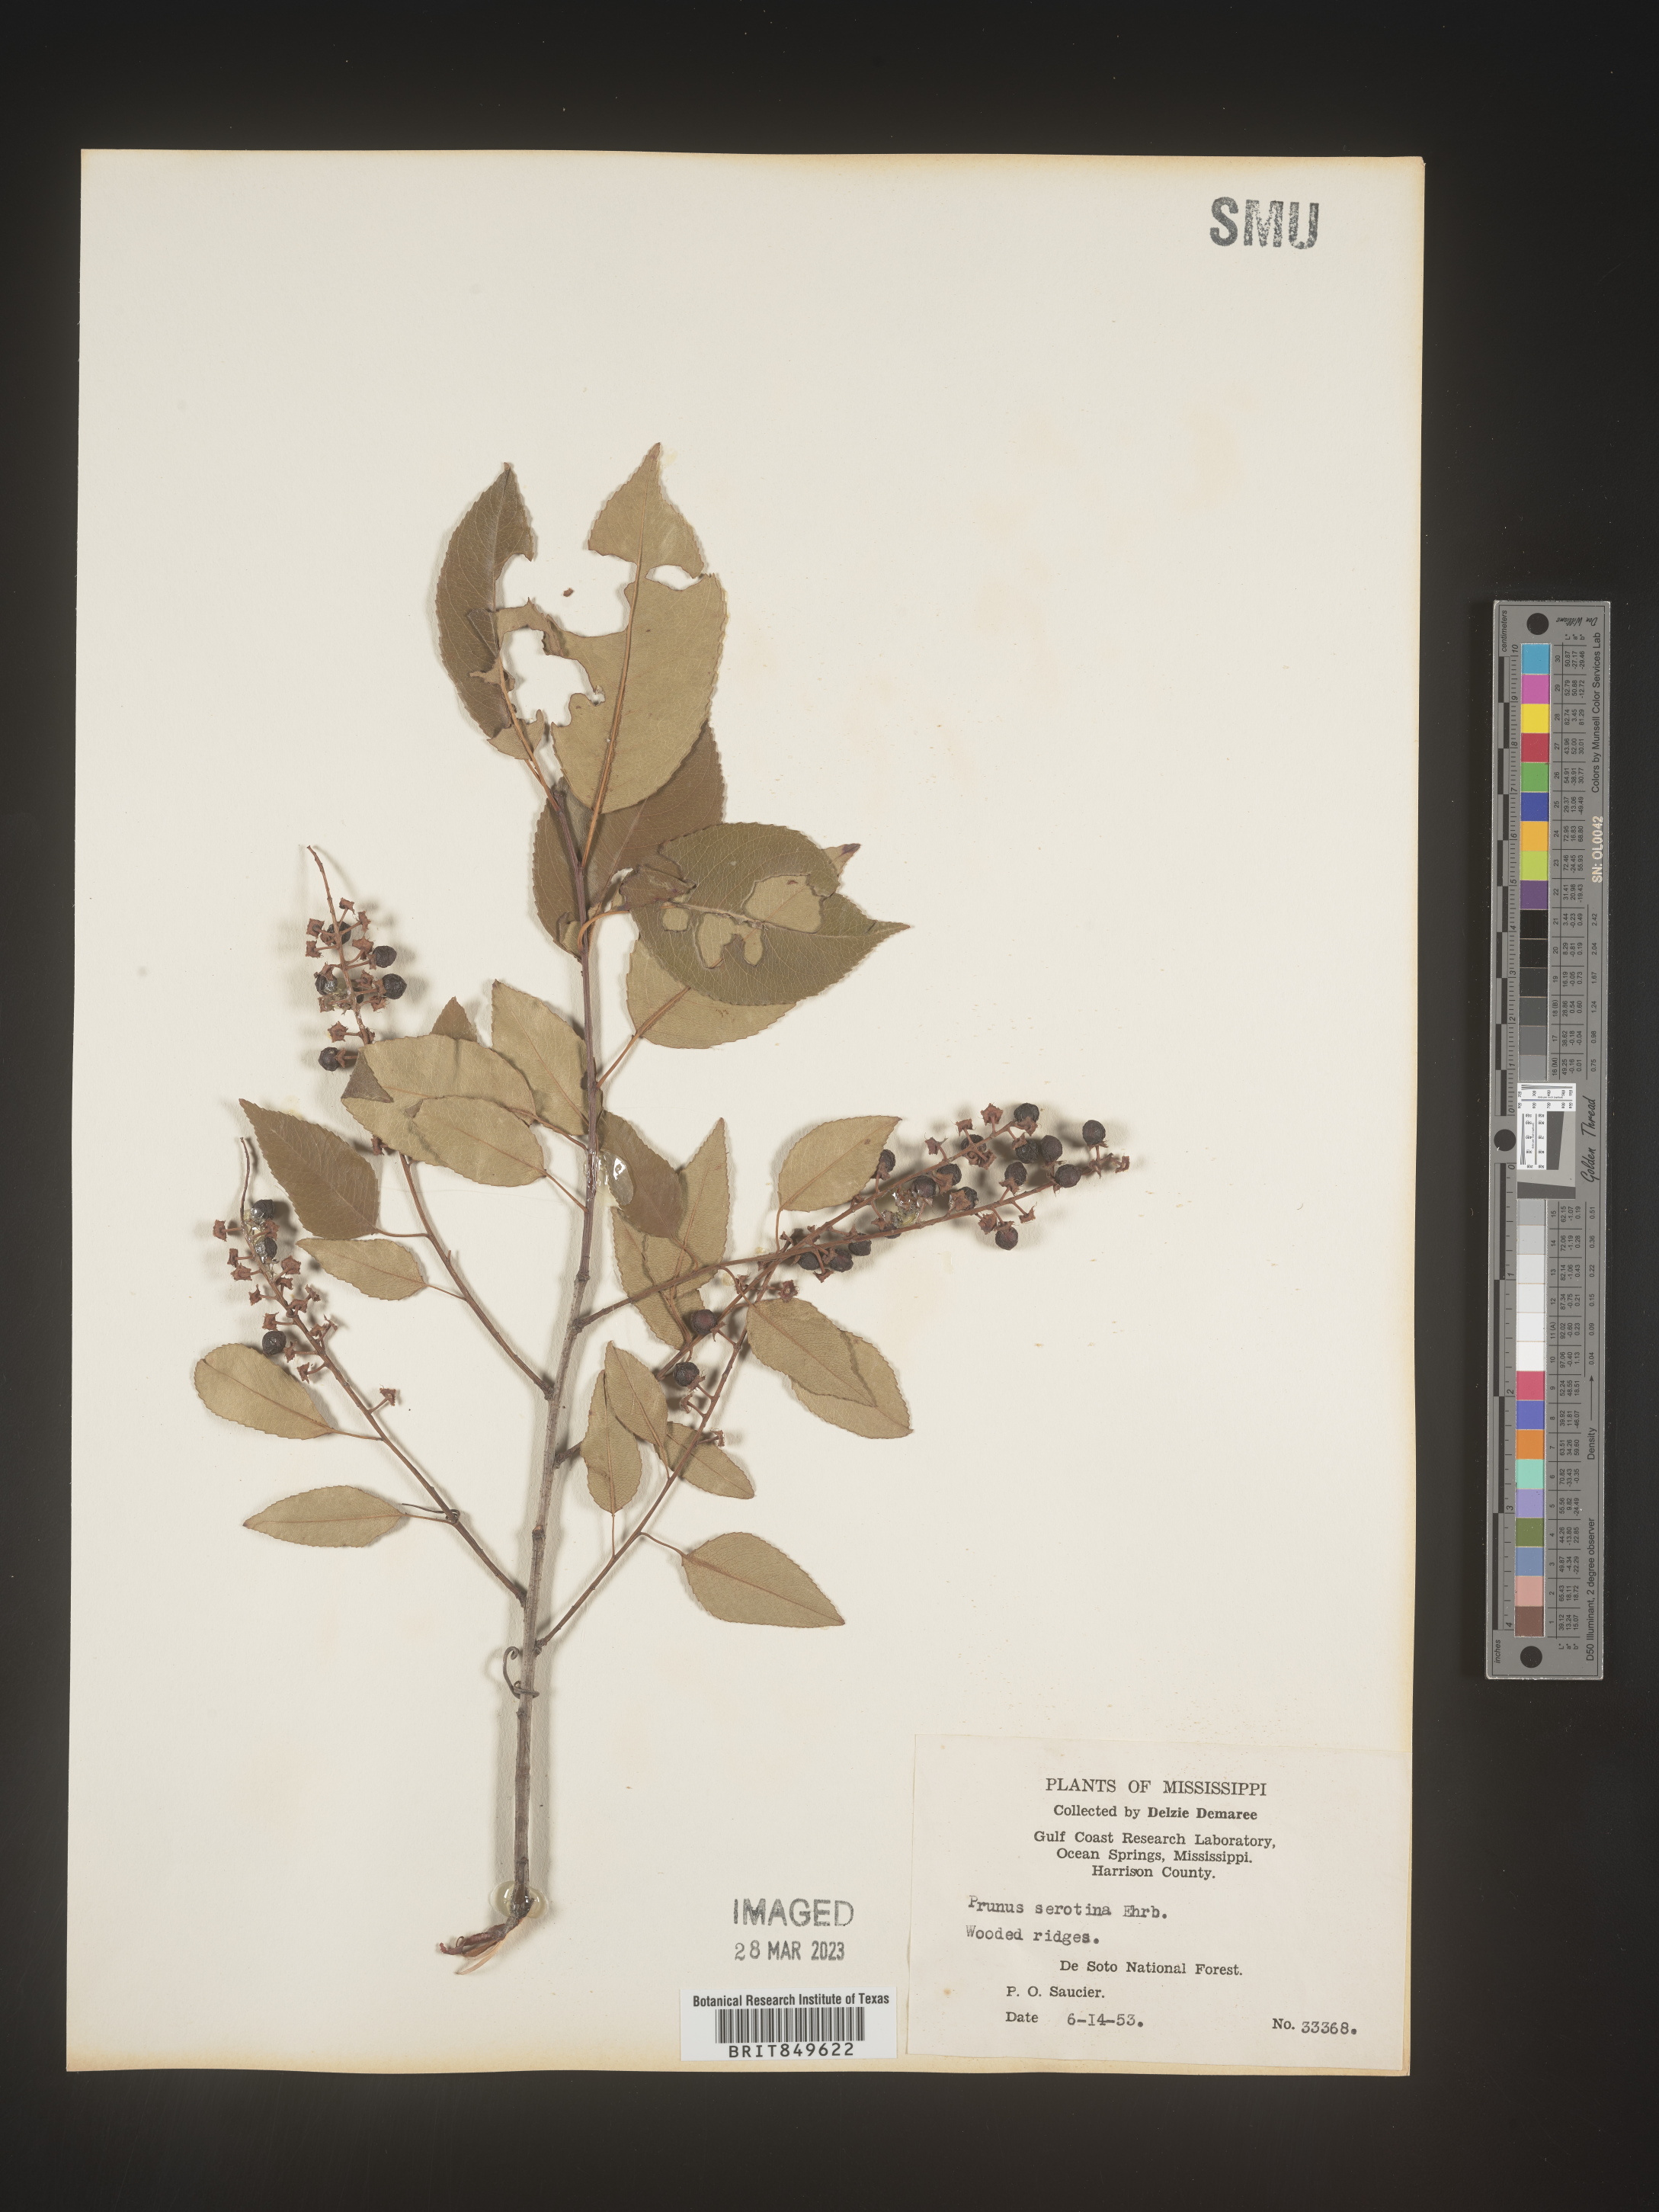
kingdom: Plantae
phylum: Tracheophyta
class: Magnoliopsida
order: Rosales
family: Rosaceae
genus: Prunus
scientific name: Prunus serotina
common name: Black cherry
